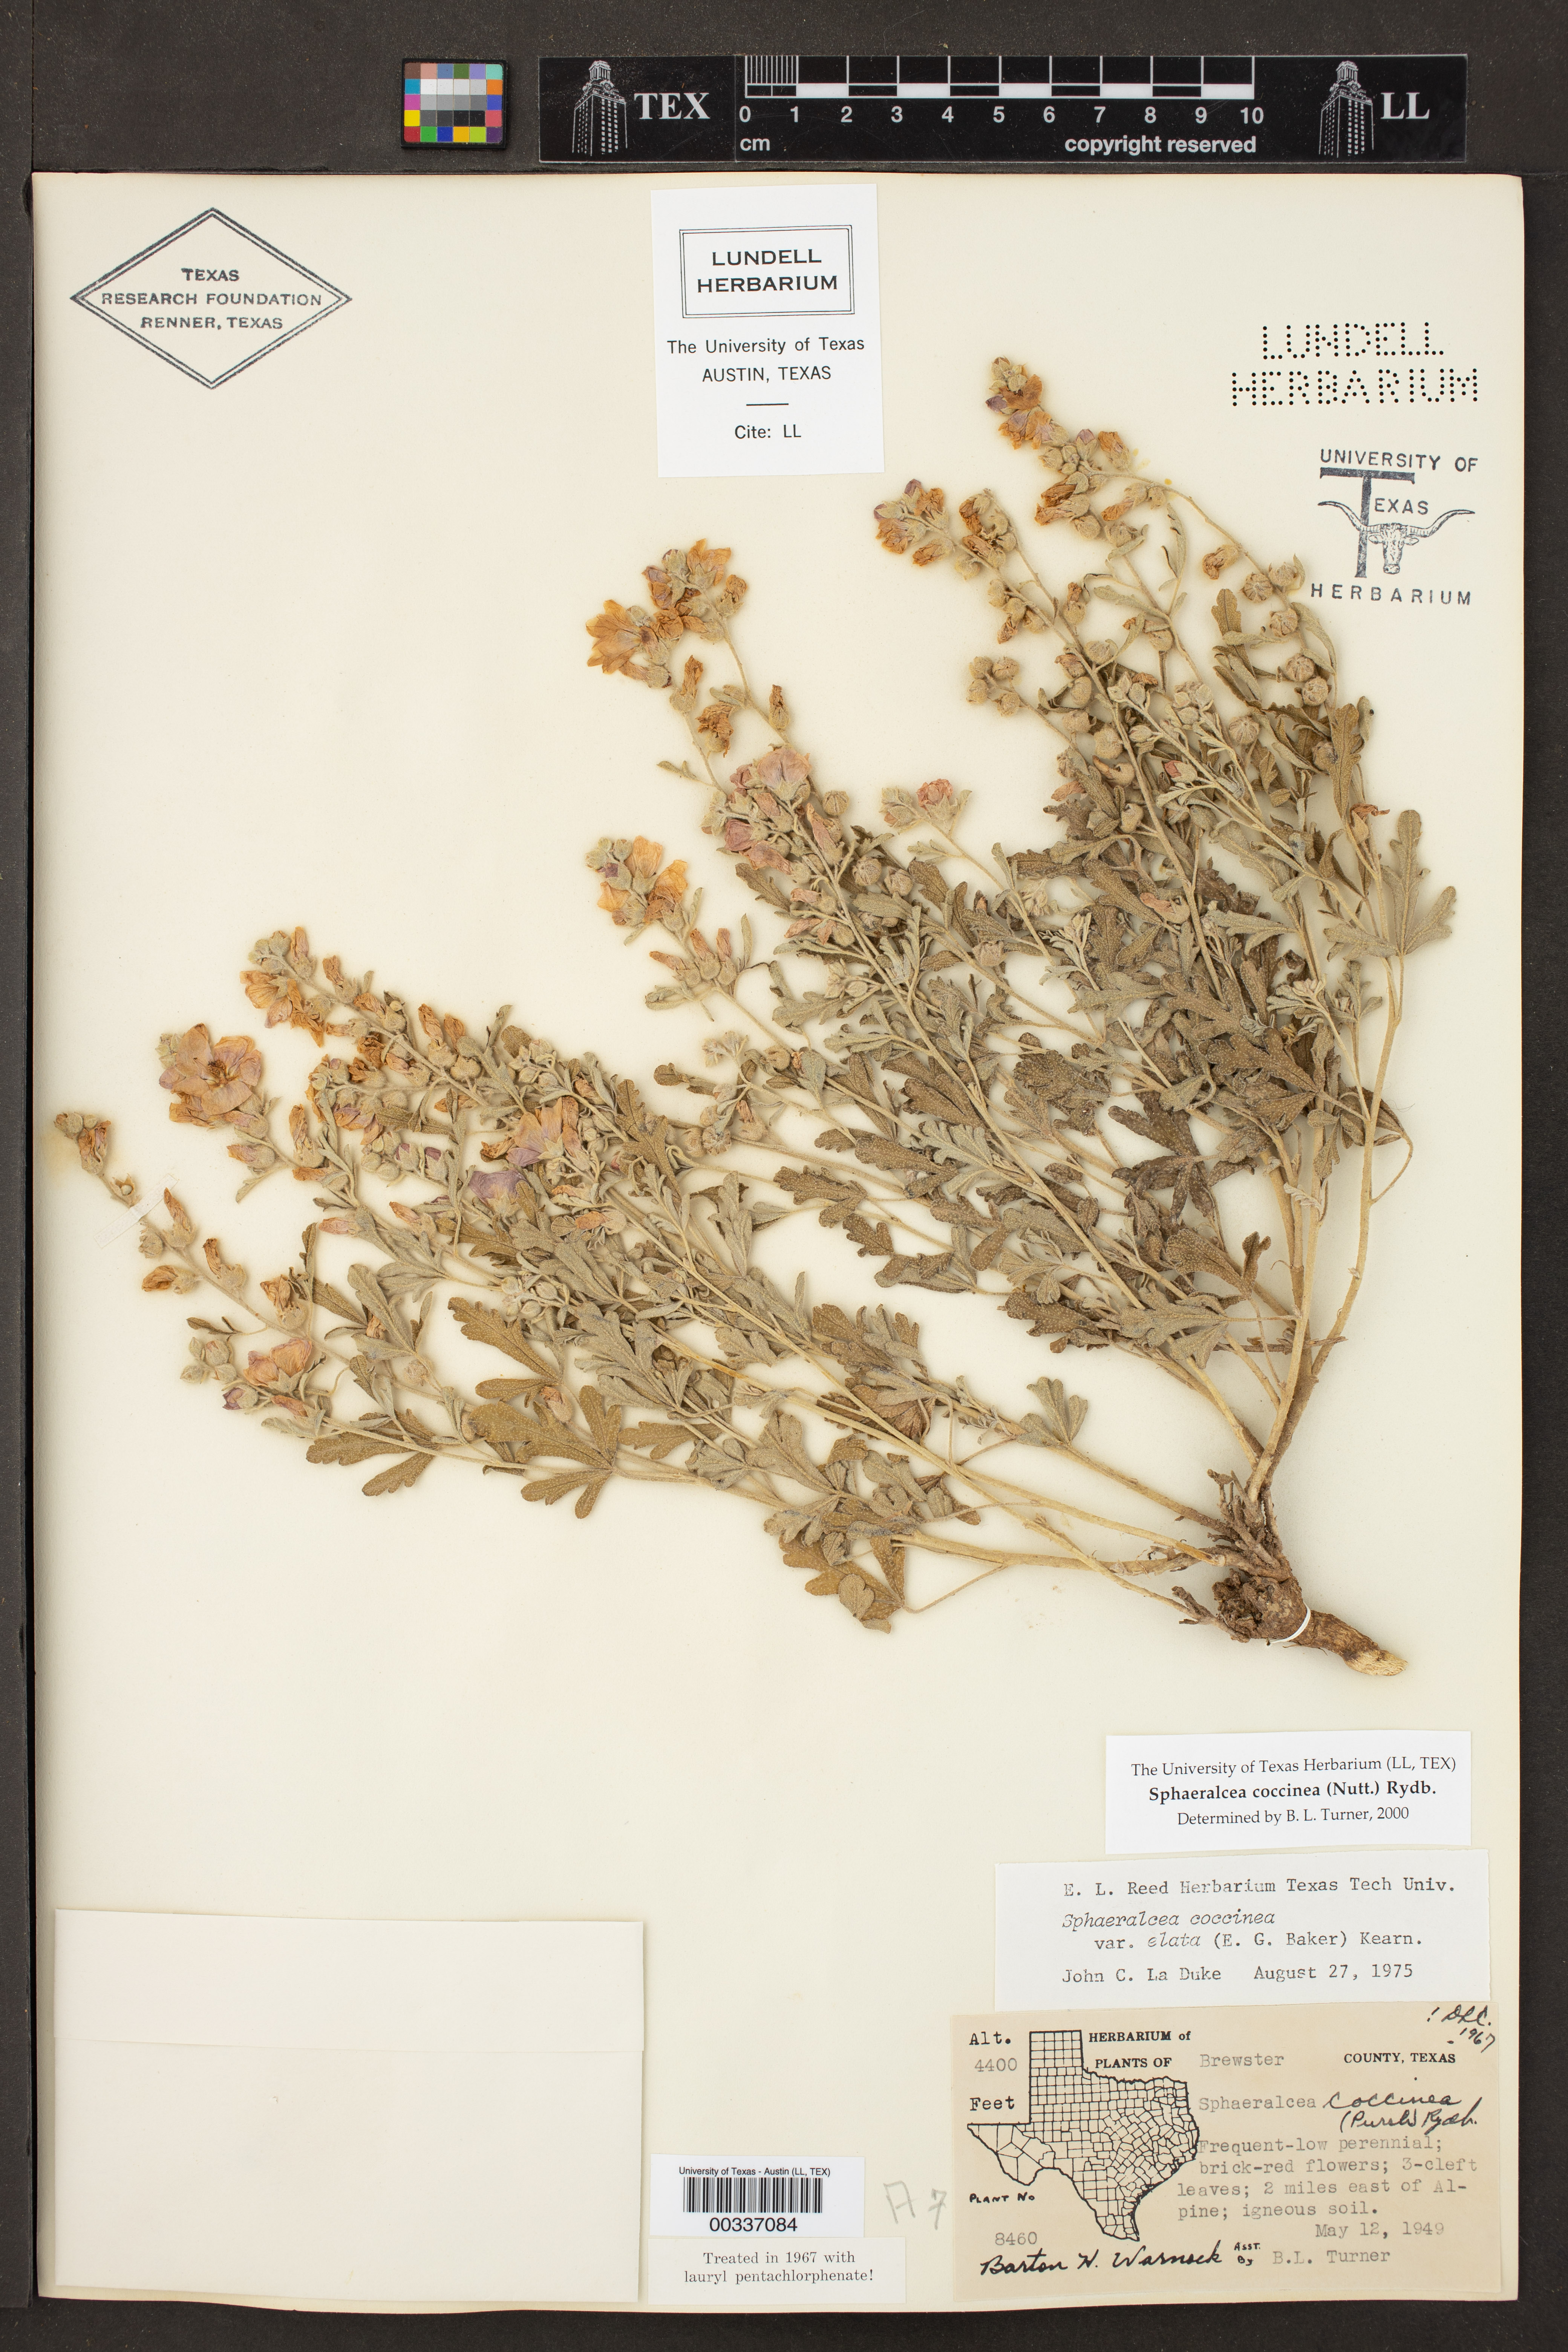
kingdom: Plantae
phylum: Tracheophyta
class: Magnoliopsida
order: Malvales
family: Malvaceae
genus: Sphaeralcea
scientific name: Sphaeralcea coccinea
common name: Moss-rose
